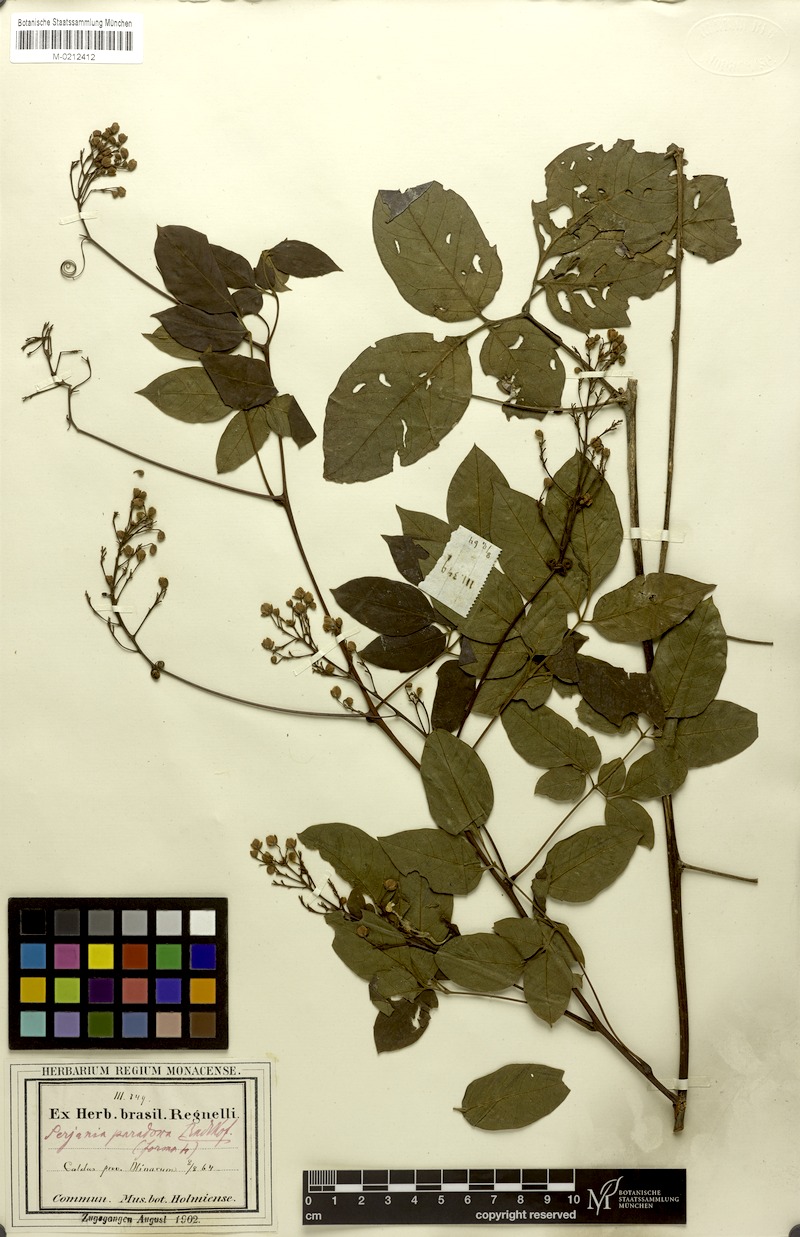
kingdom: Plantae
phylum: Tracheophyta
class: Magnoliopsida
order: Sapindales
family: Sapindaceae
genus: Serjania
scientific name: Serjania paradoxa
